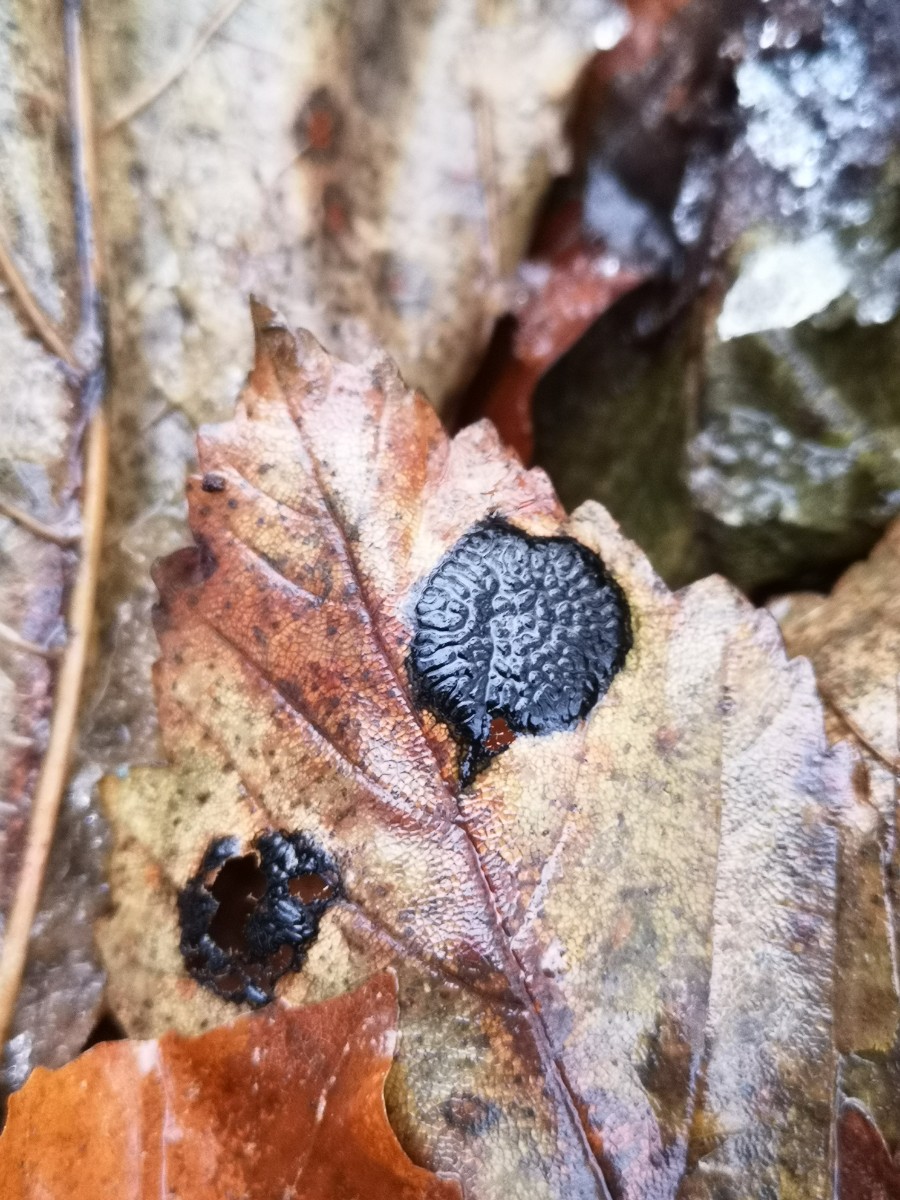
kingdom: Fungi
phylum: Ascomycota
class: Leotiomycetes
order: Rhytismatales
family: Rhytismataceae
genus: Rhytisma
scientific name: Rhytisma acerinum
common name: ahorn-rynkeplet
